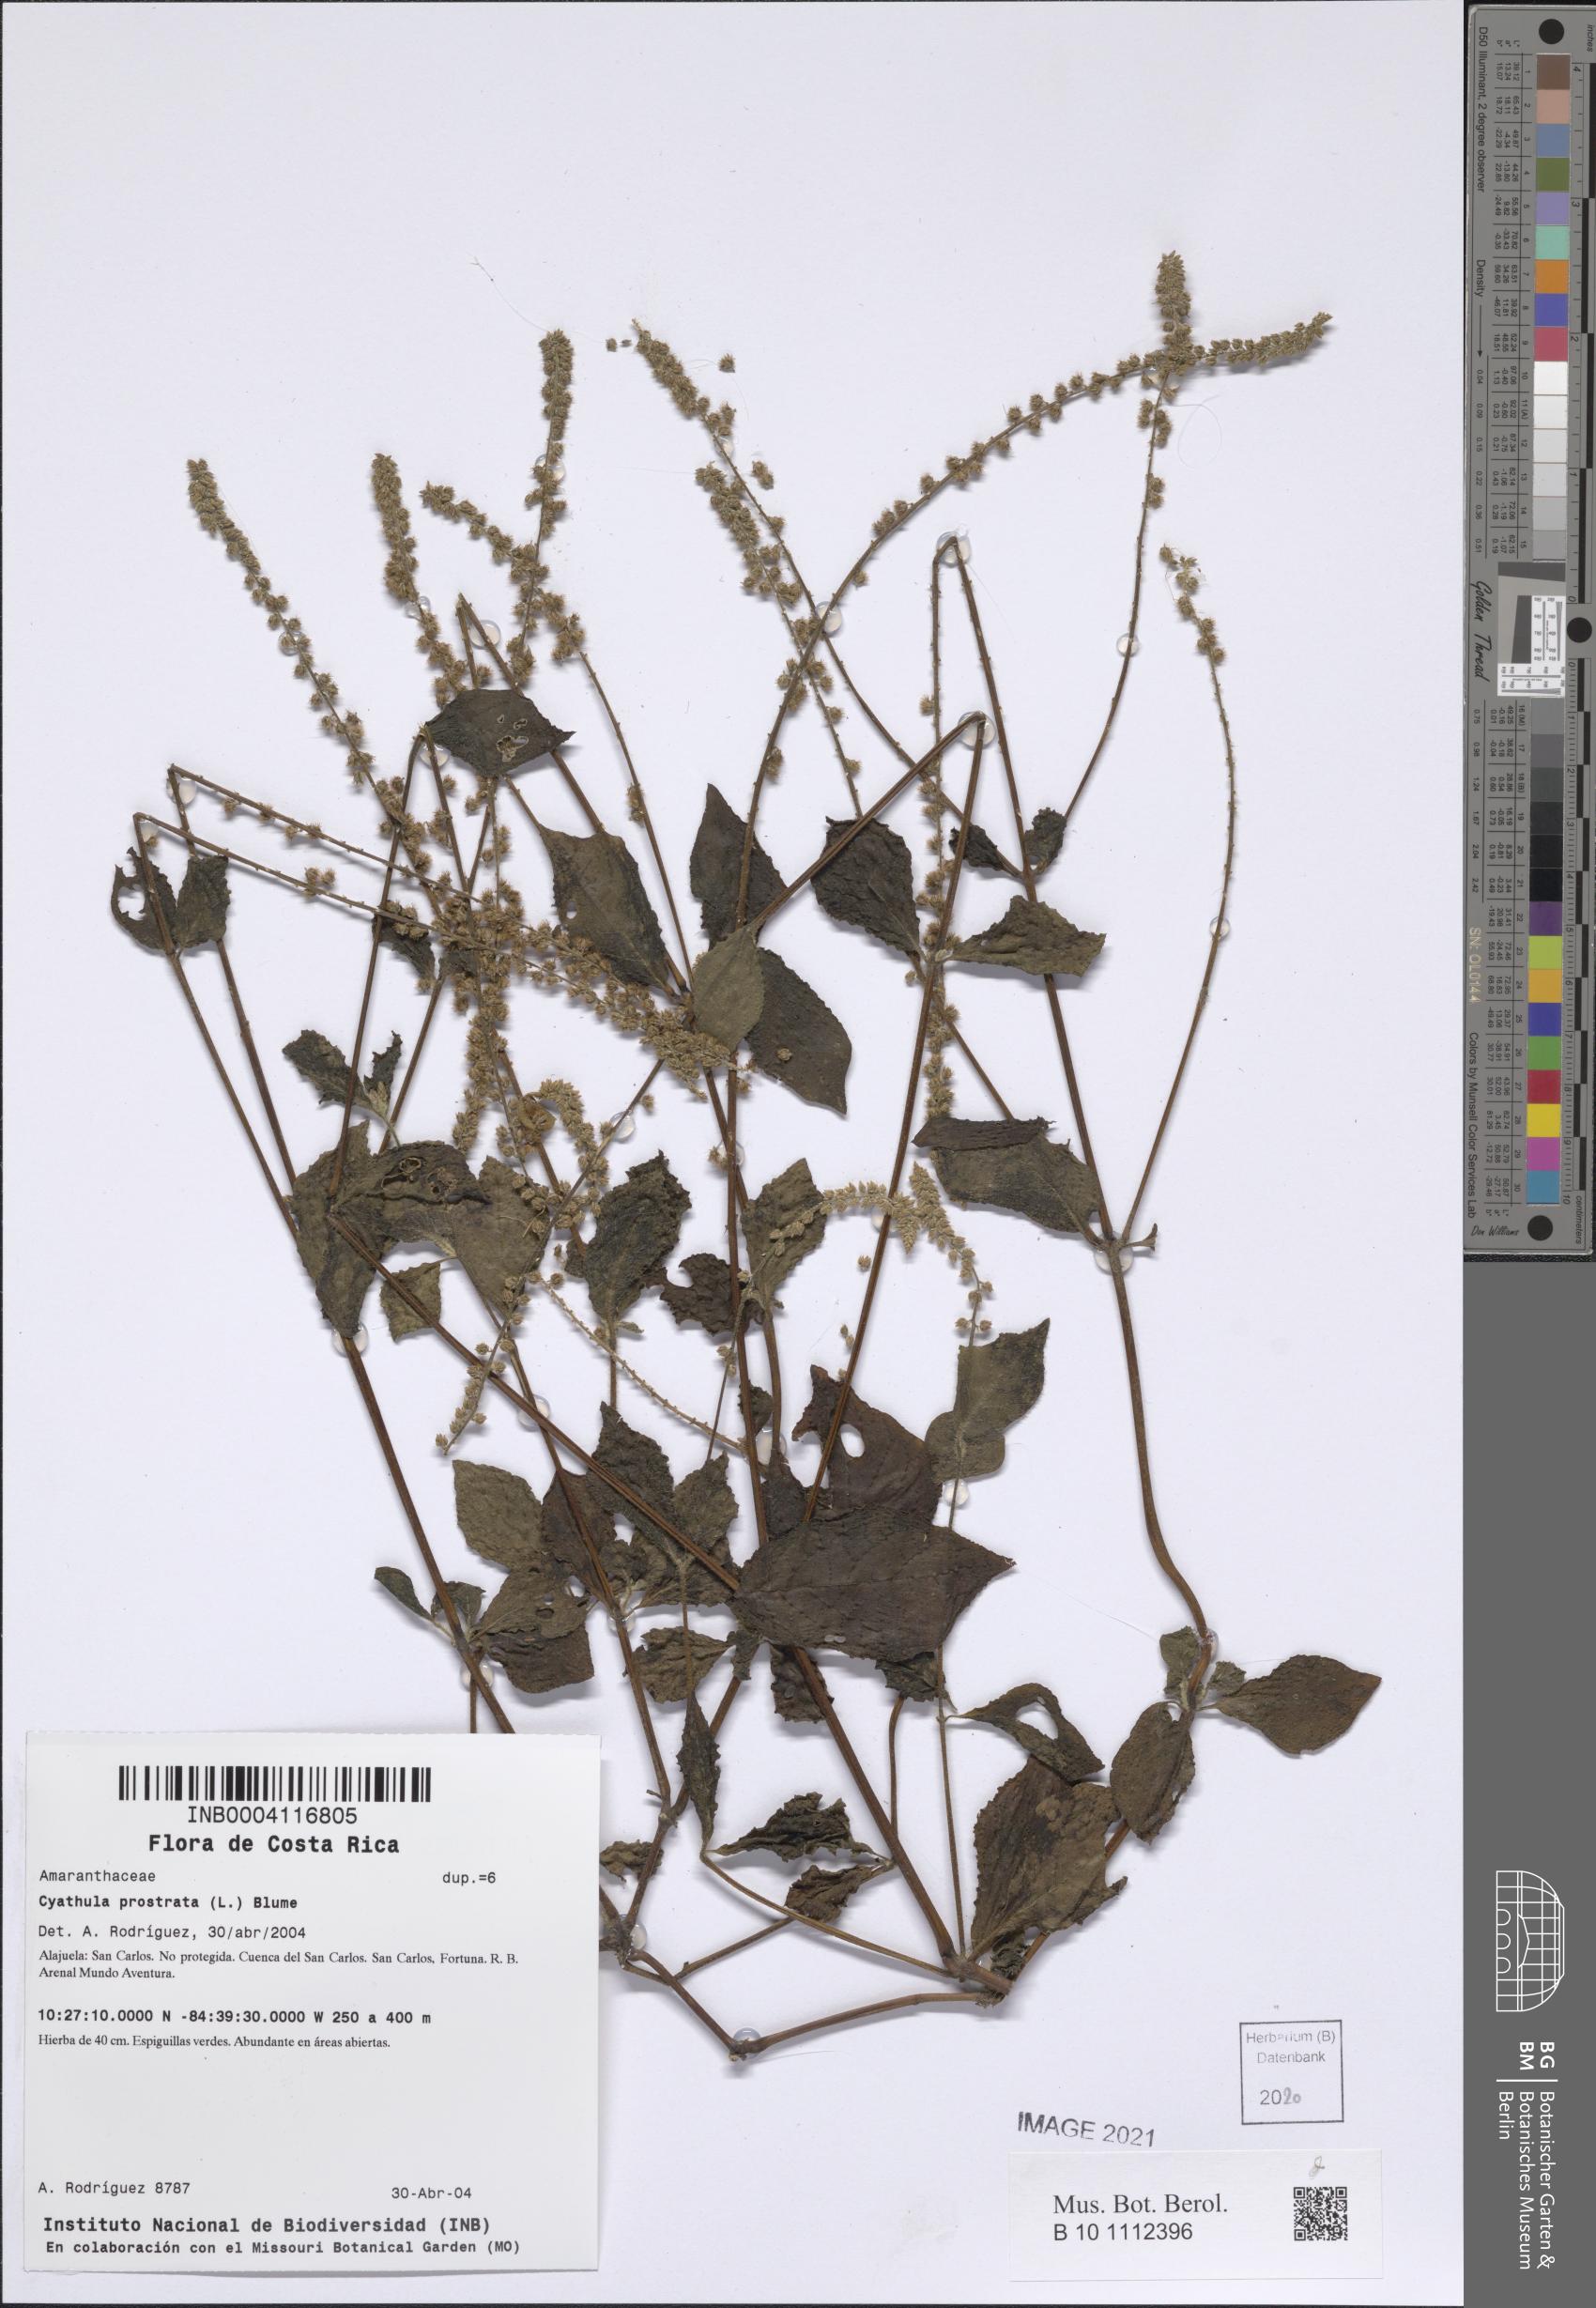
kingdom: Plantae
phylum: Tracheophyta
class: Magnoliopsida
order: Caryophyllales
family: Amaranthaceae
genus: Cyathula
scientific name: Cyathula prostrata
